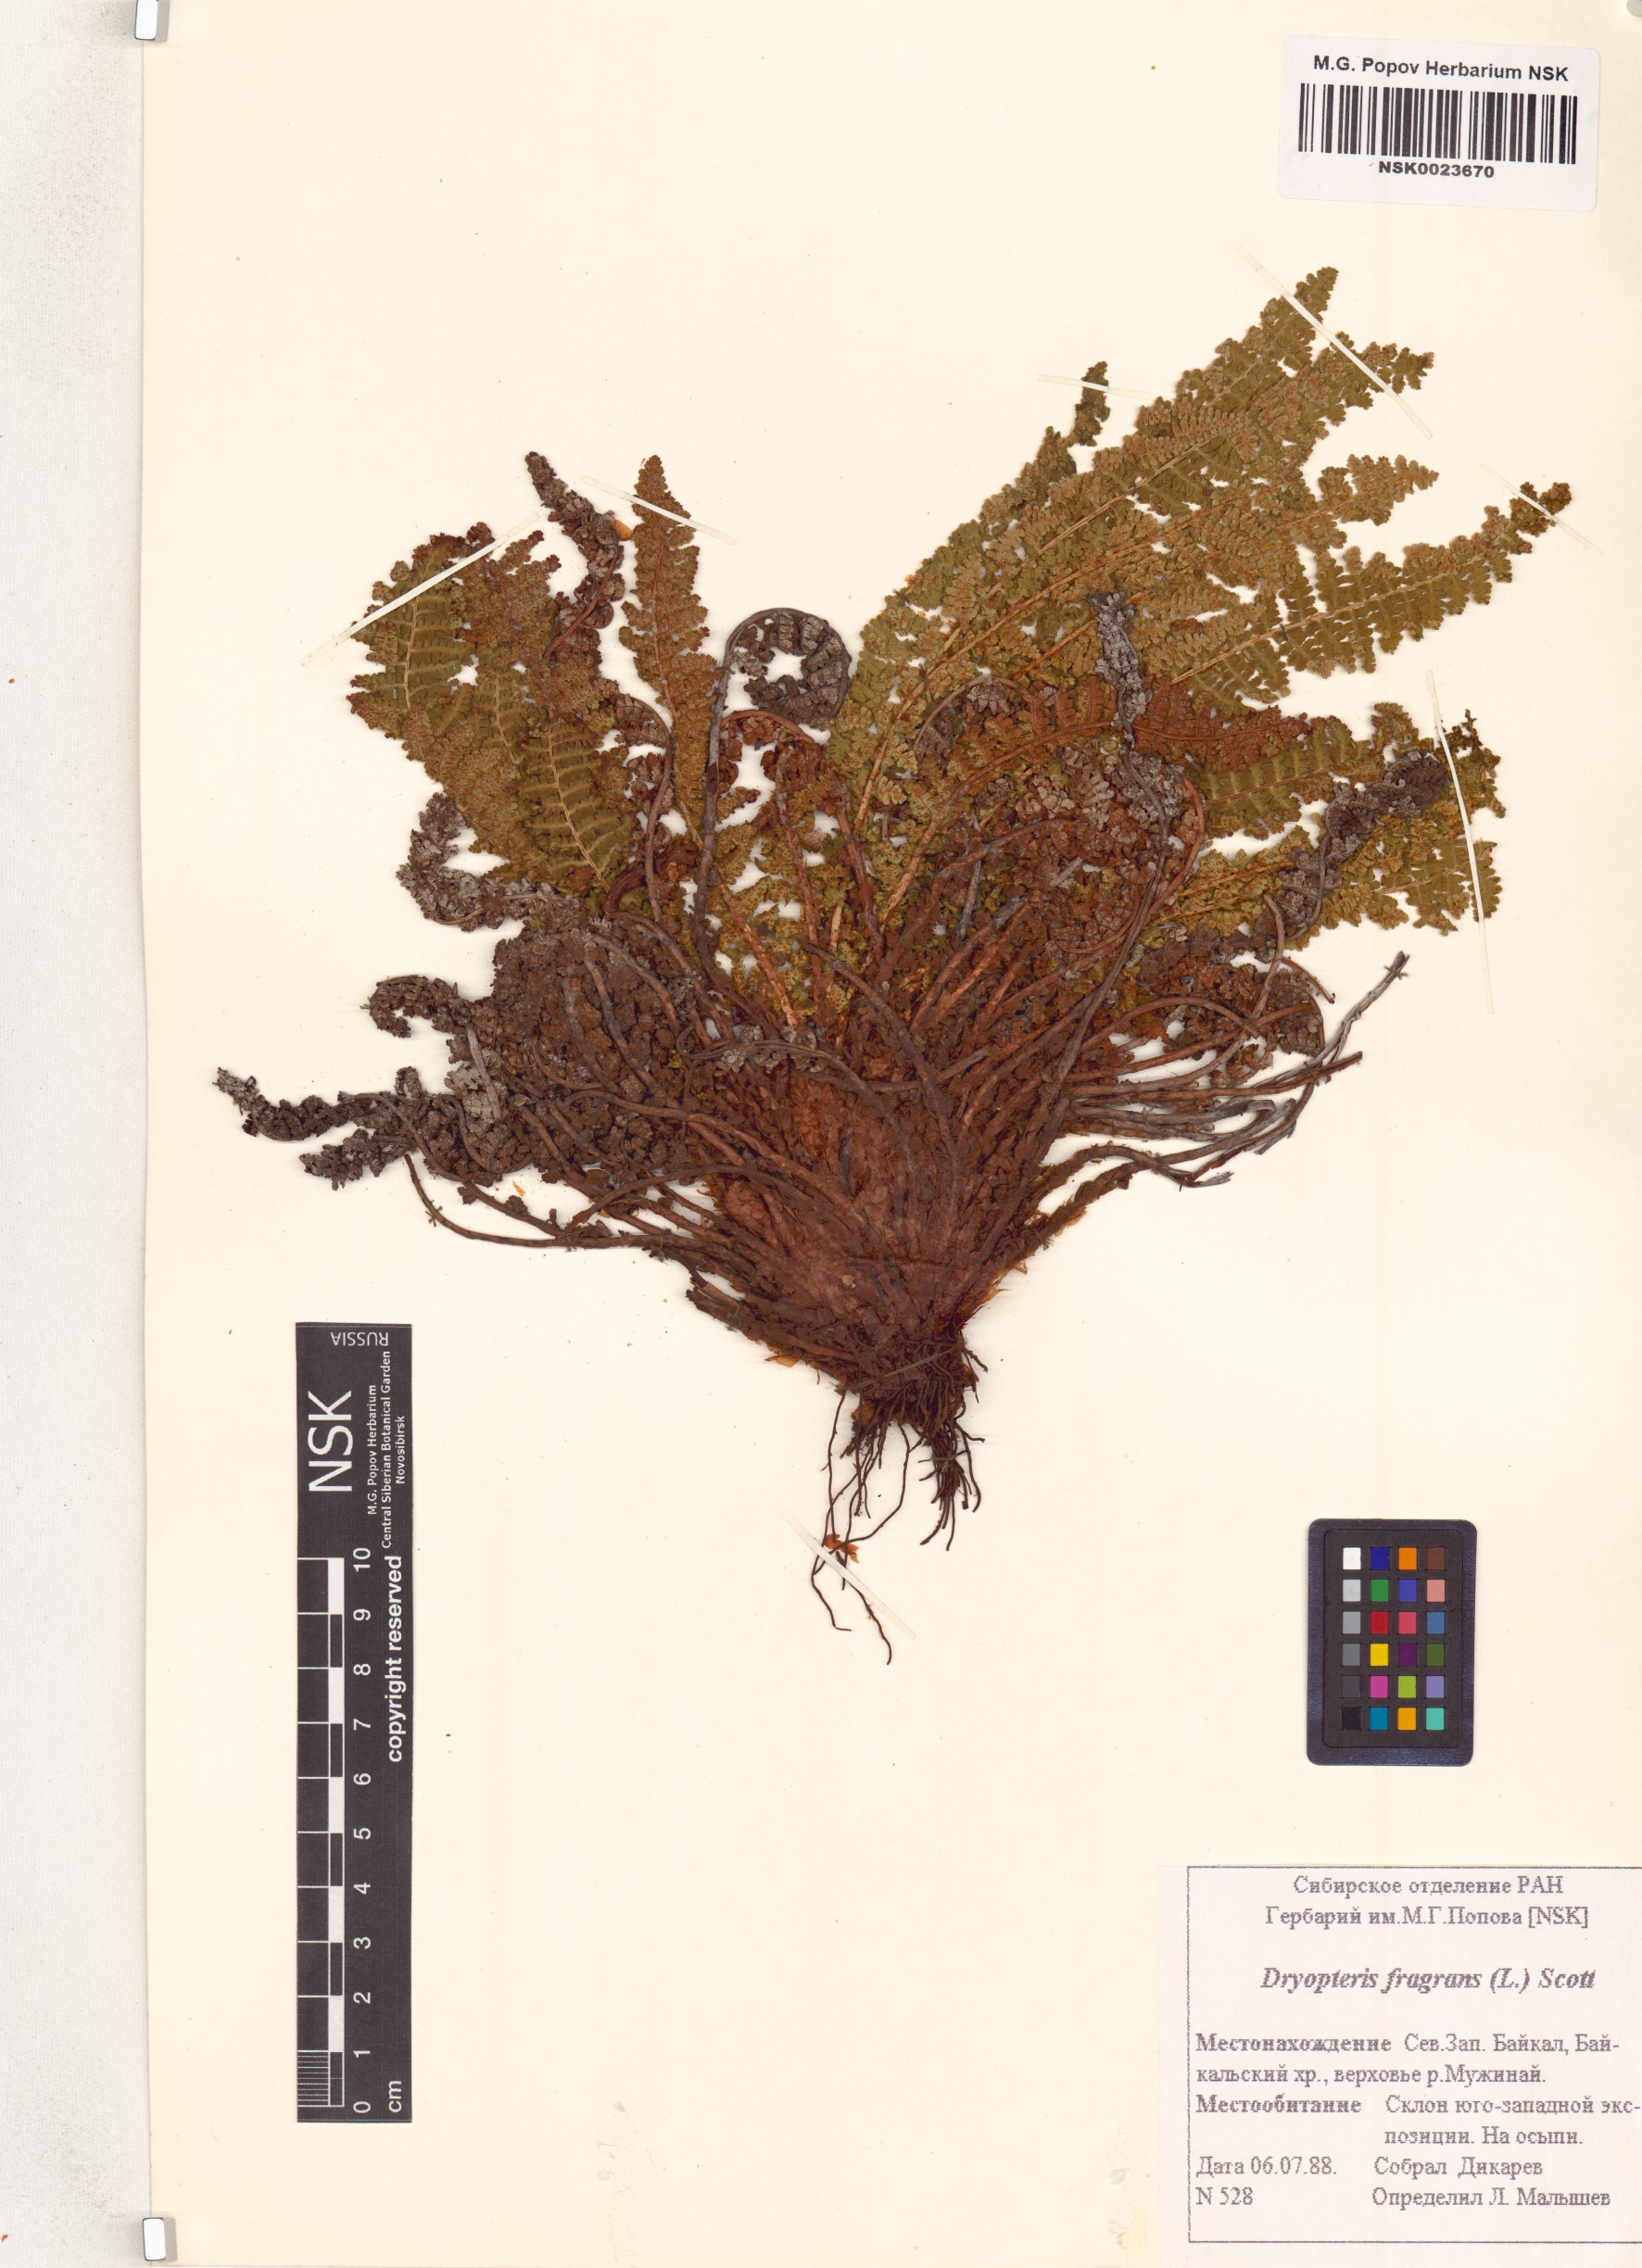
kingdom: Plantae
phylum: Tracheophyta
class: Polypodiopsida
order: Polypodiales
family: Dryopteridaceae
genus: Dryopteris
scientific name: Dryopteris fragrans
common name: Fragrant wood fern
